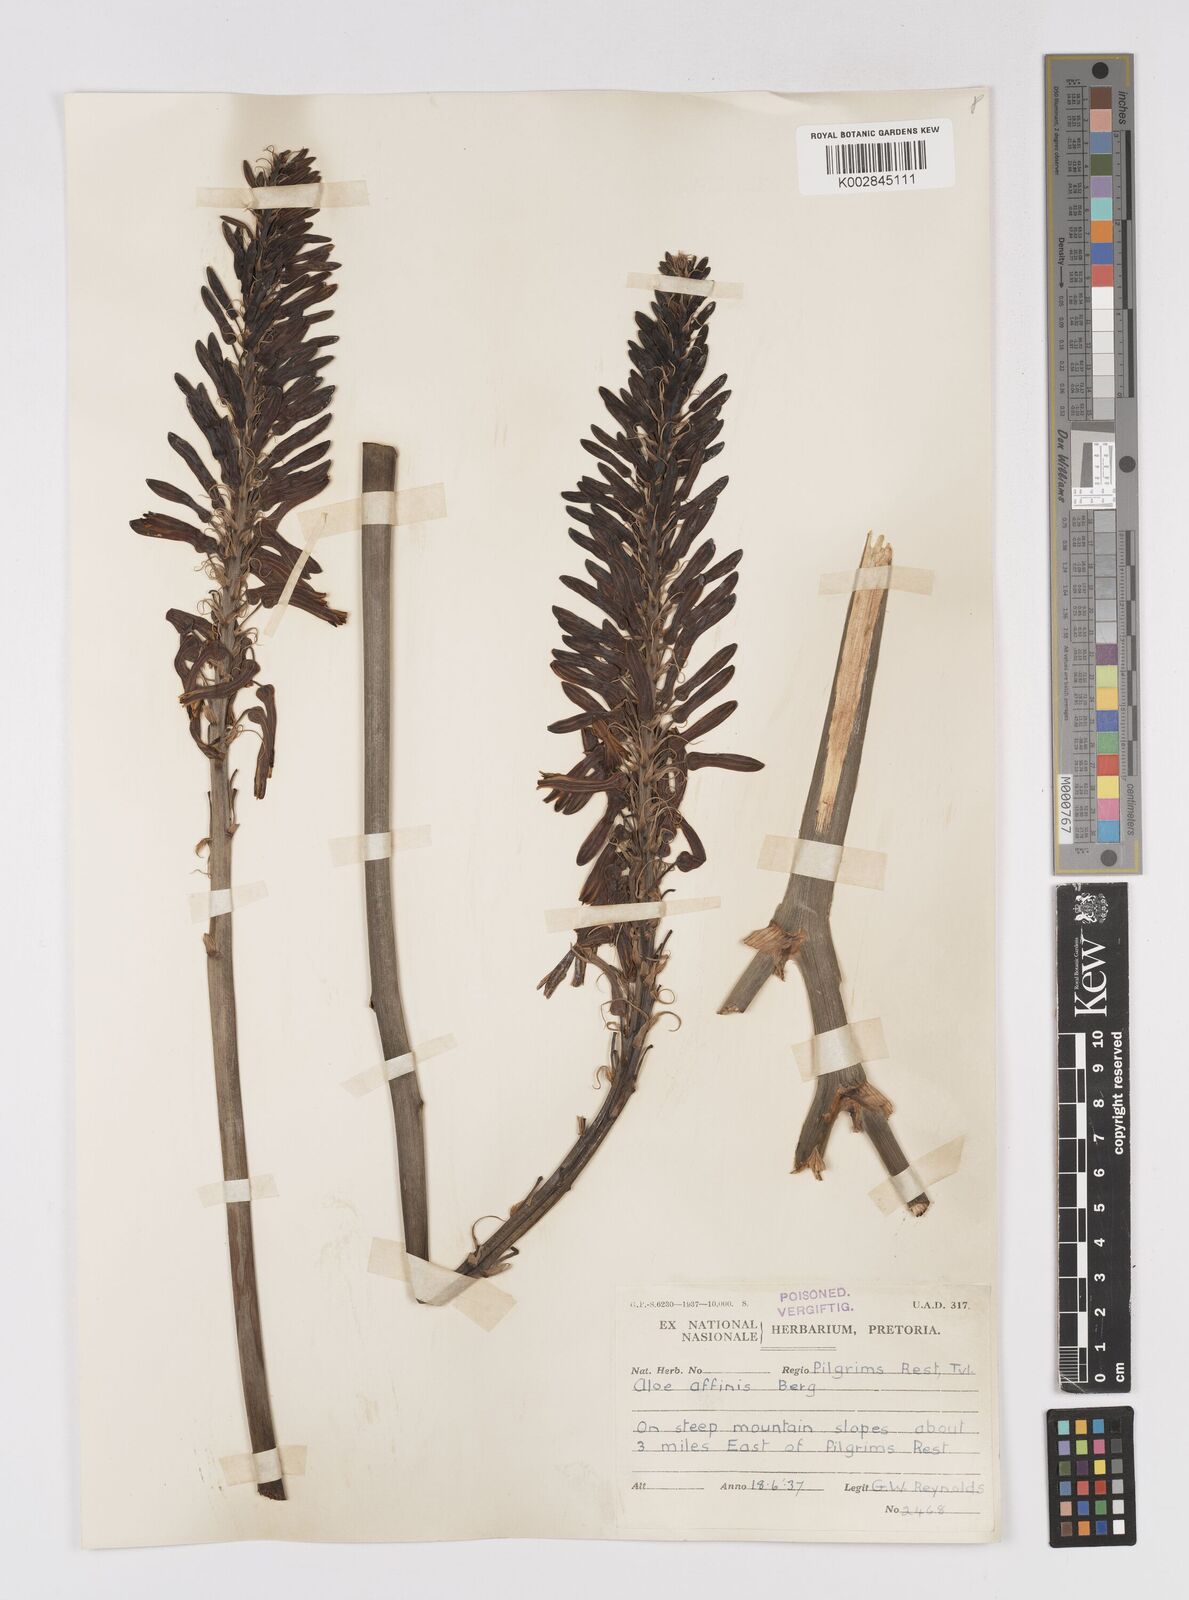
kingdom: Plantae
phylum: Tracheophyta
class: Liliopsida
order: Asparagales
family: Asphodelaceae
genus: Aloe
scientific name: Aloe affinis
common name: Spotted aloe
